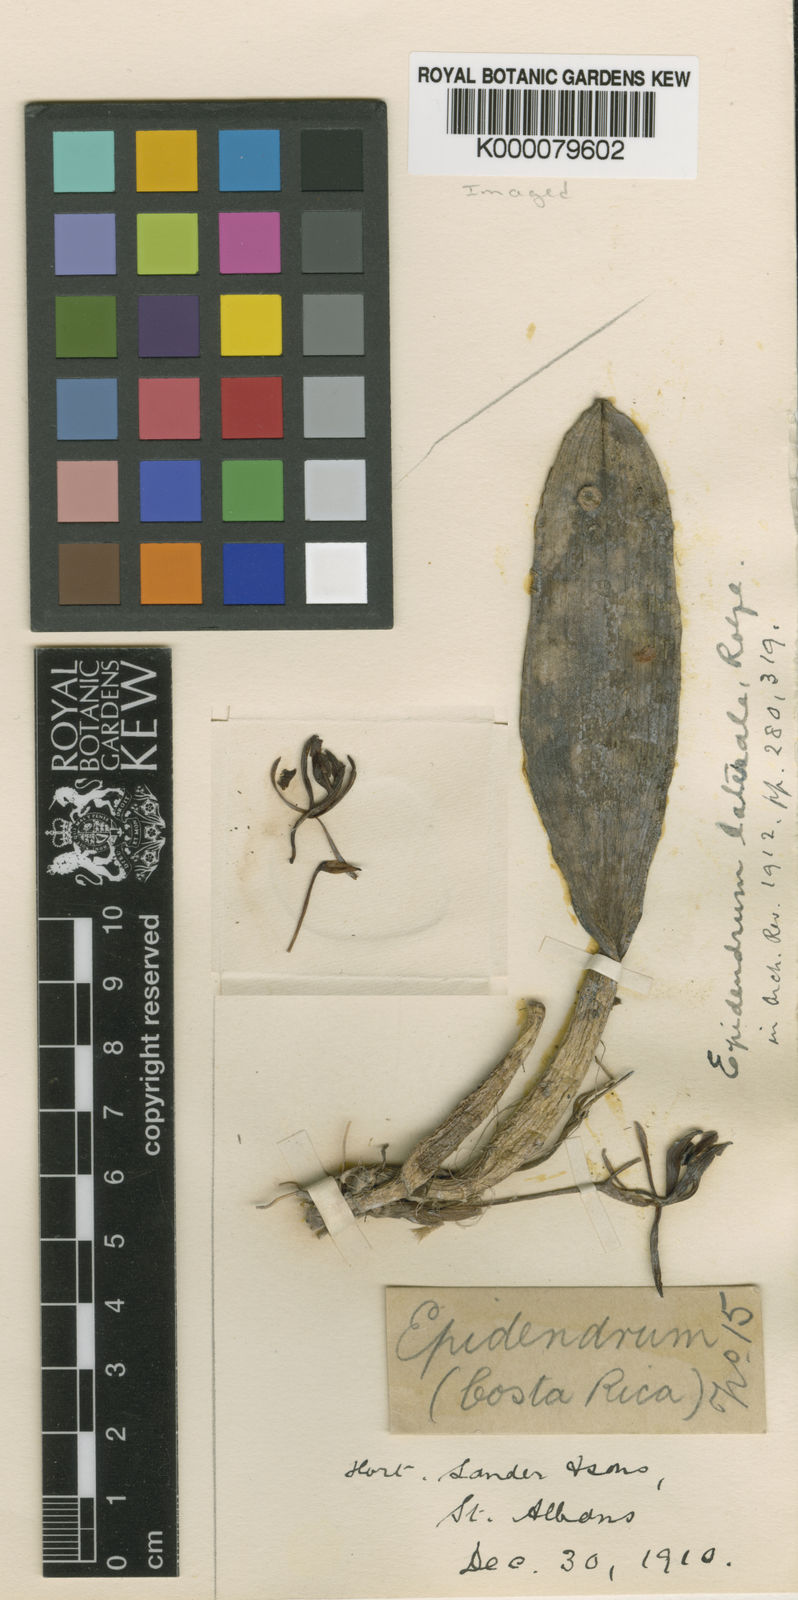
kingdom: Plantae
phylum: Tracheophyta
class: Liliopsida
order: Asparagales
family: Orchidaceae
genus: Epidendrum
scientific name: Epidendrum laterale
